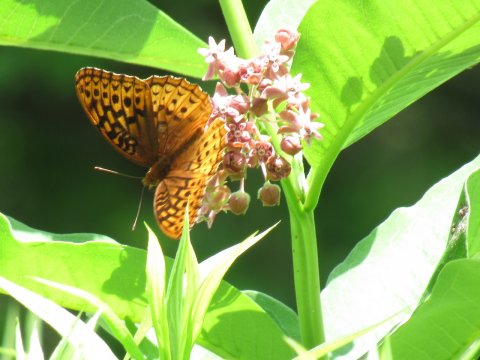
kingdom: Animalia
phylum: Arthropoda
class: Insecta
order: Lepidoptera
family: Nymphalidae
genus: Speyeria
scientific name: Speyeria cybele
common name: Great Spangled Fritillary
